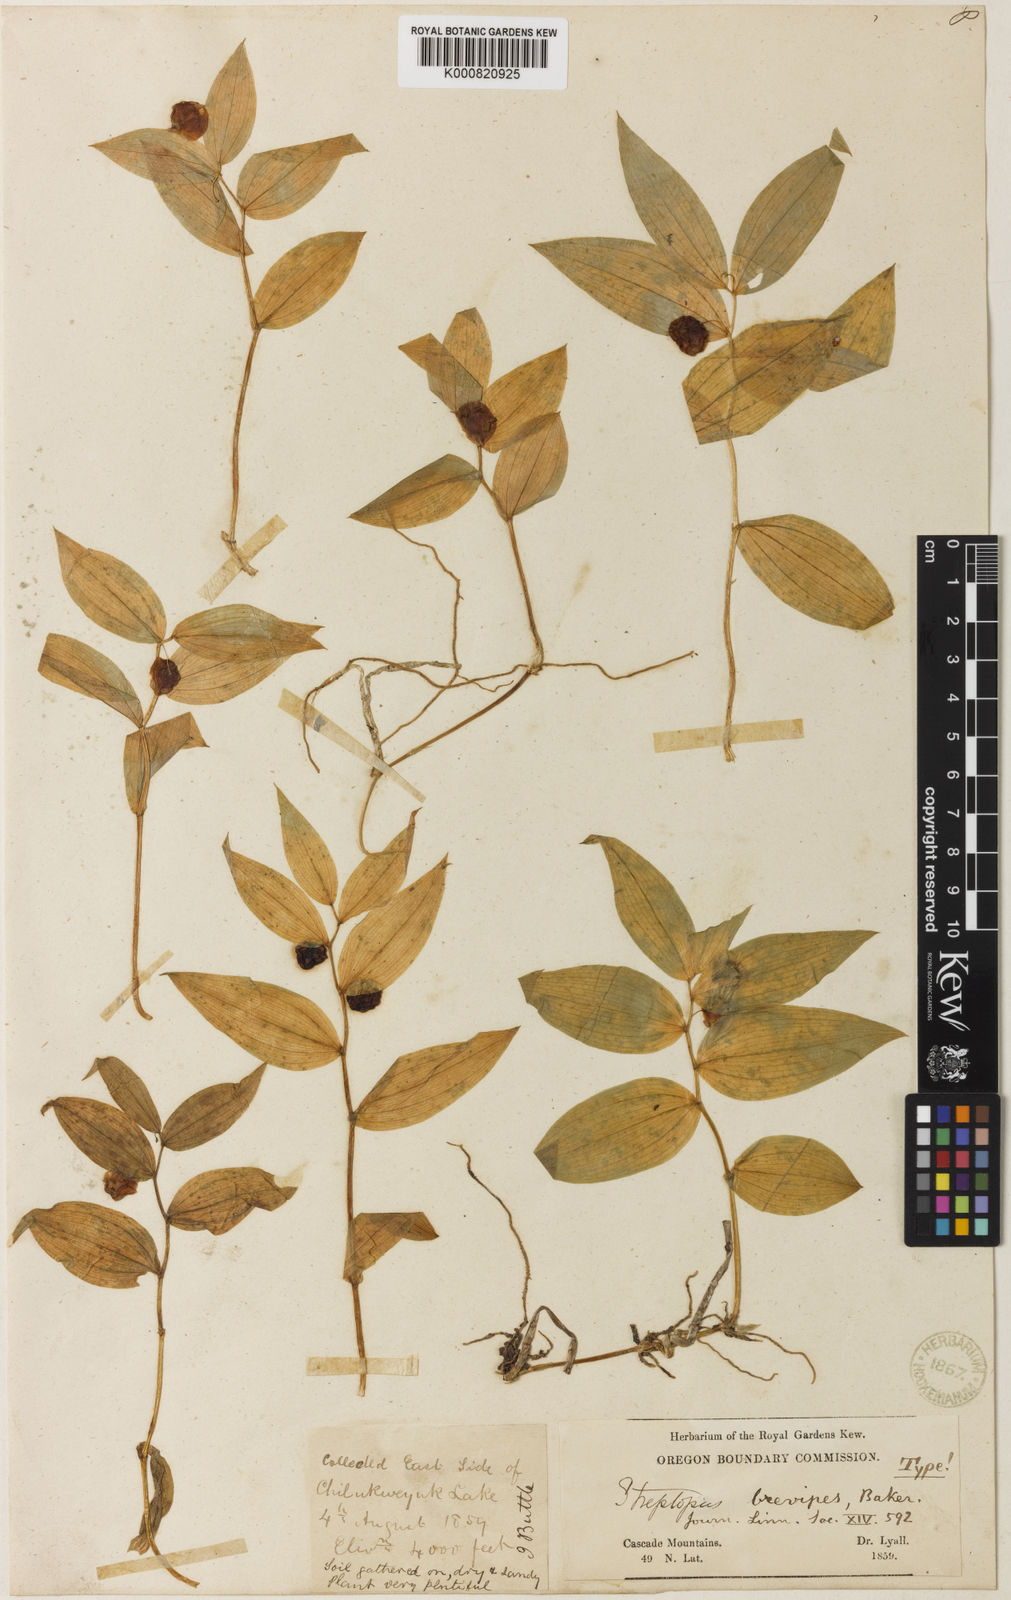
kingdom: Plantae
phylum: Tracheophyta
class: Liliopsida
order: Liliales
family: Liliaceae
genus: Streptopus
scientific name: Streptopus
